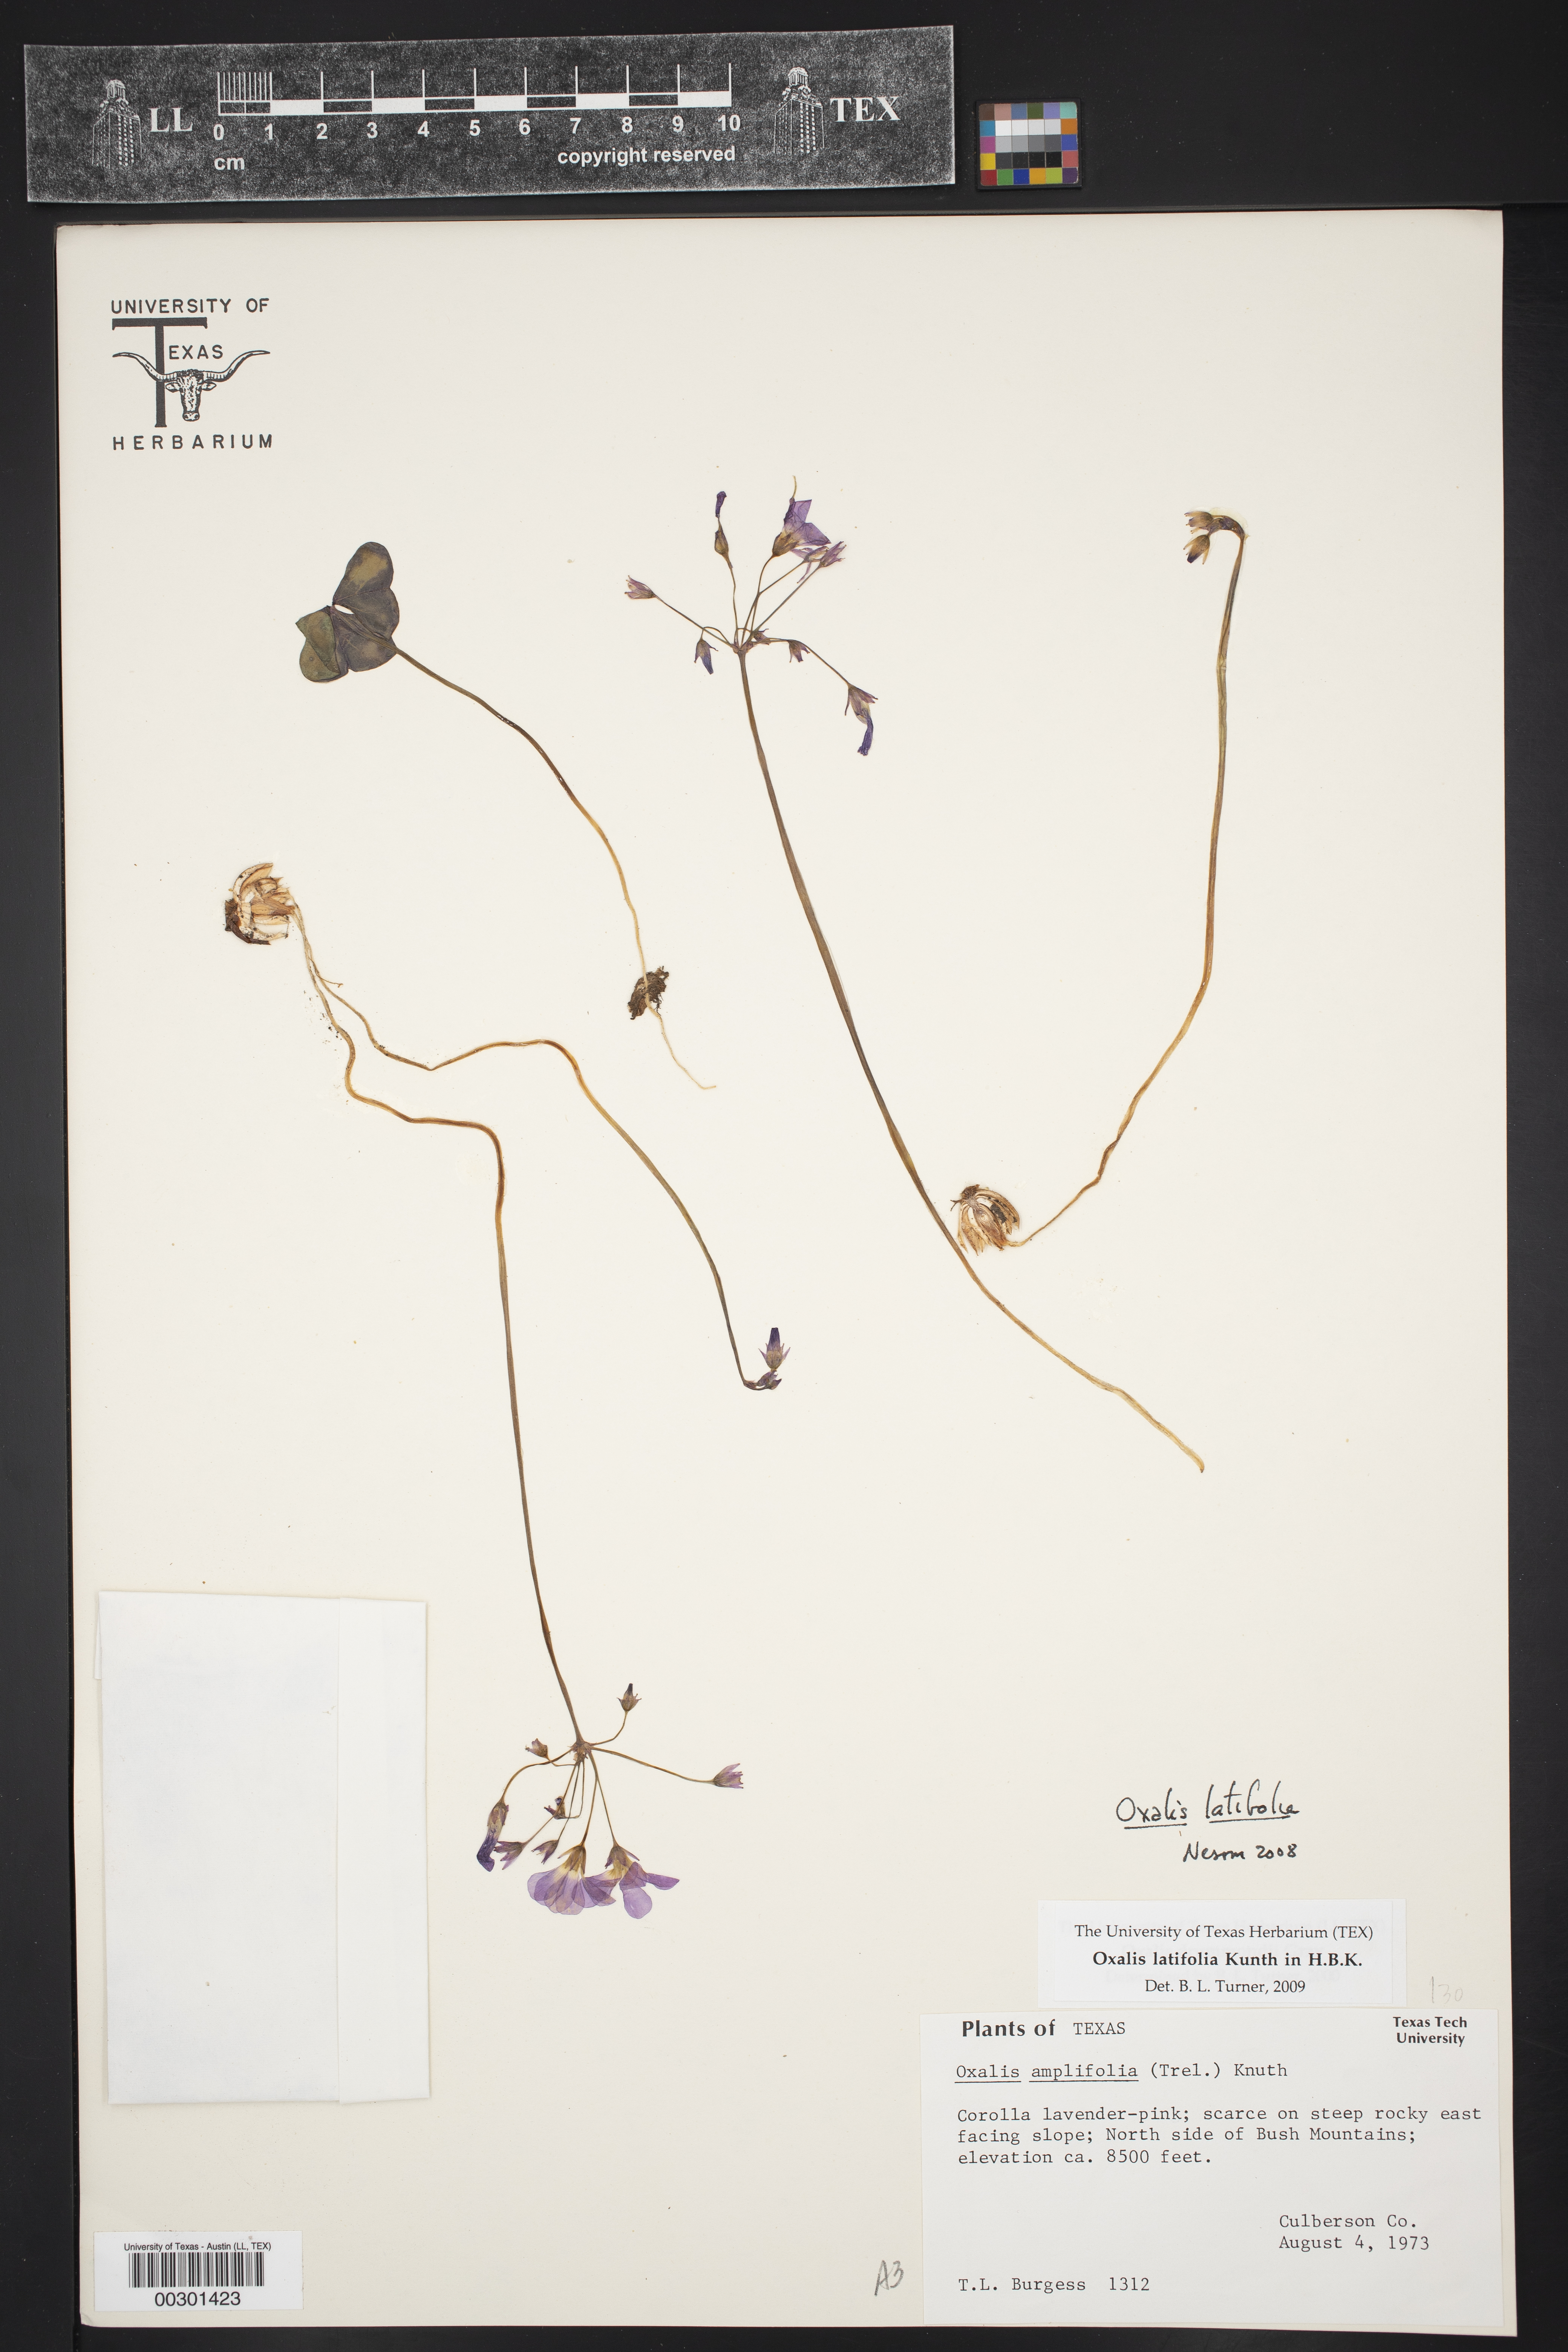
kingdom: Plantae
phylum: Tracheophyta
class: Magnoliopsida
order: Oxalidales
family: Oxalidaceae
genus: Oxalis
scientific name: Oxalis latifolia
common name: Garden pink-sorrel
